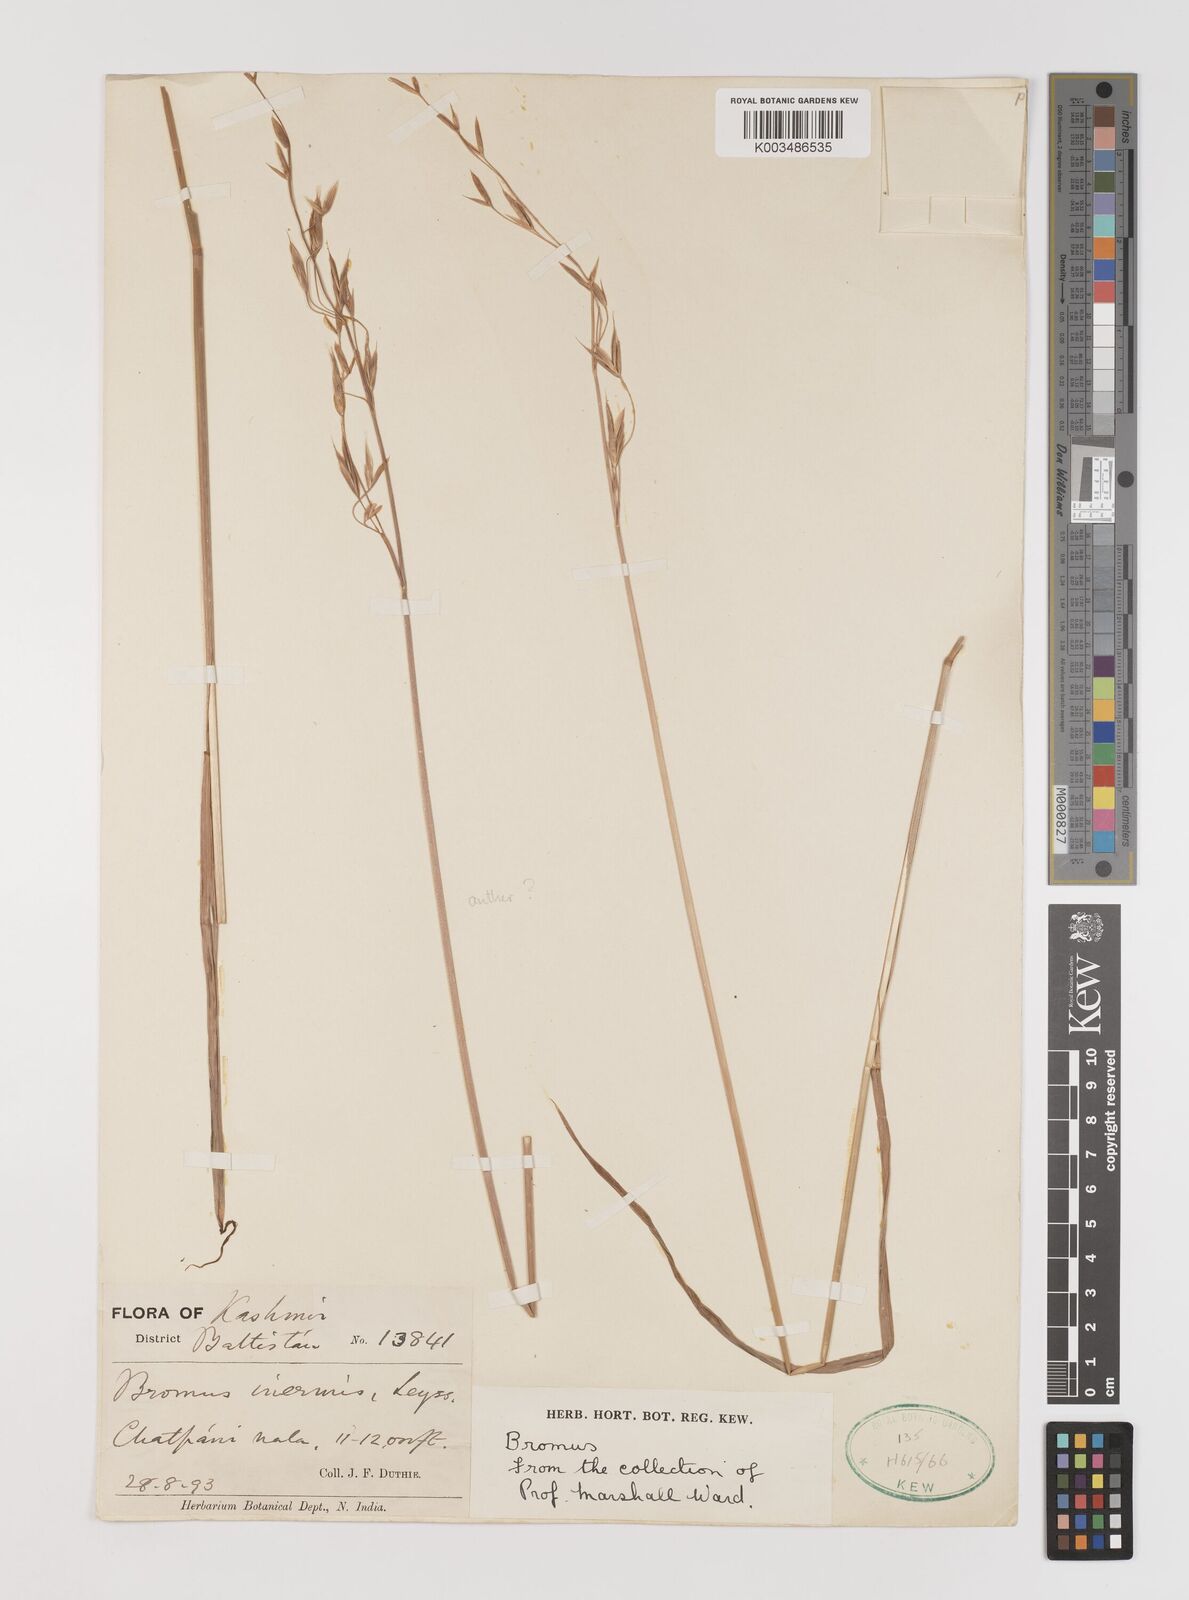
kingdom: Plantae
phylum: Tracheophyta
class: Liliopsida
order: Poales
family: Poaceae
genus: Bromus
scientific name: Bromus inermis
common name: Smooth brome
